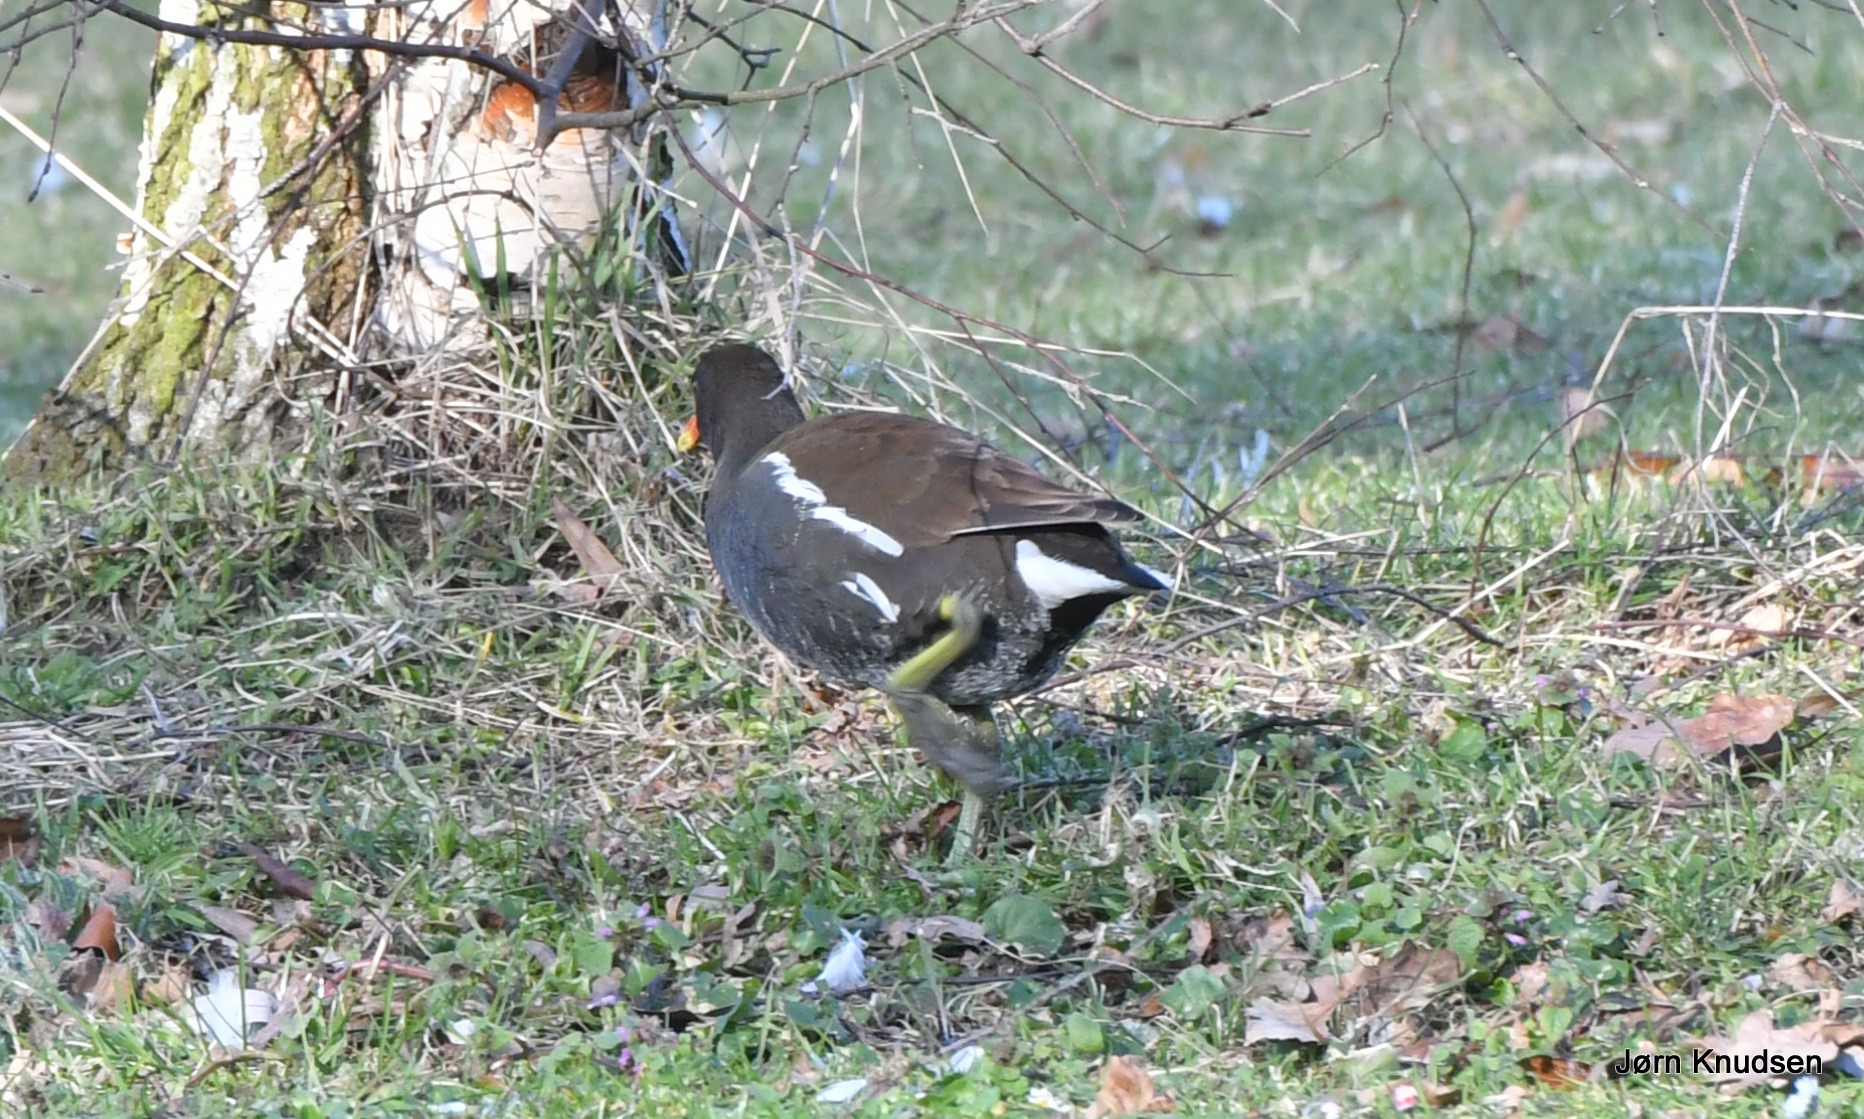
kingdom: Animalia
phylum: Chordata
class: Aves
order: Gruiformes
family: Rallidae
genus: Gallinula
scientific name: Gallinula chloropus
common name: Grønbenet rørhøne
